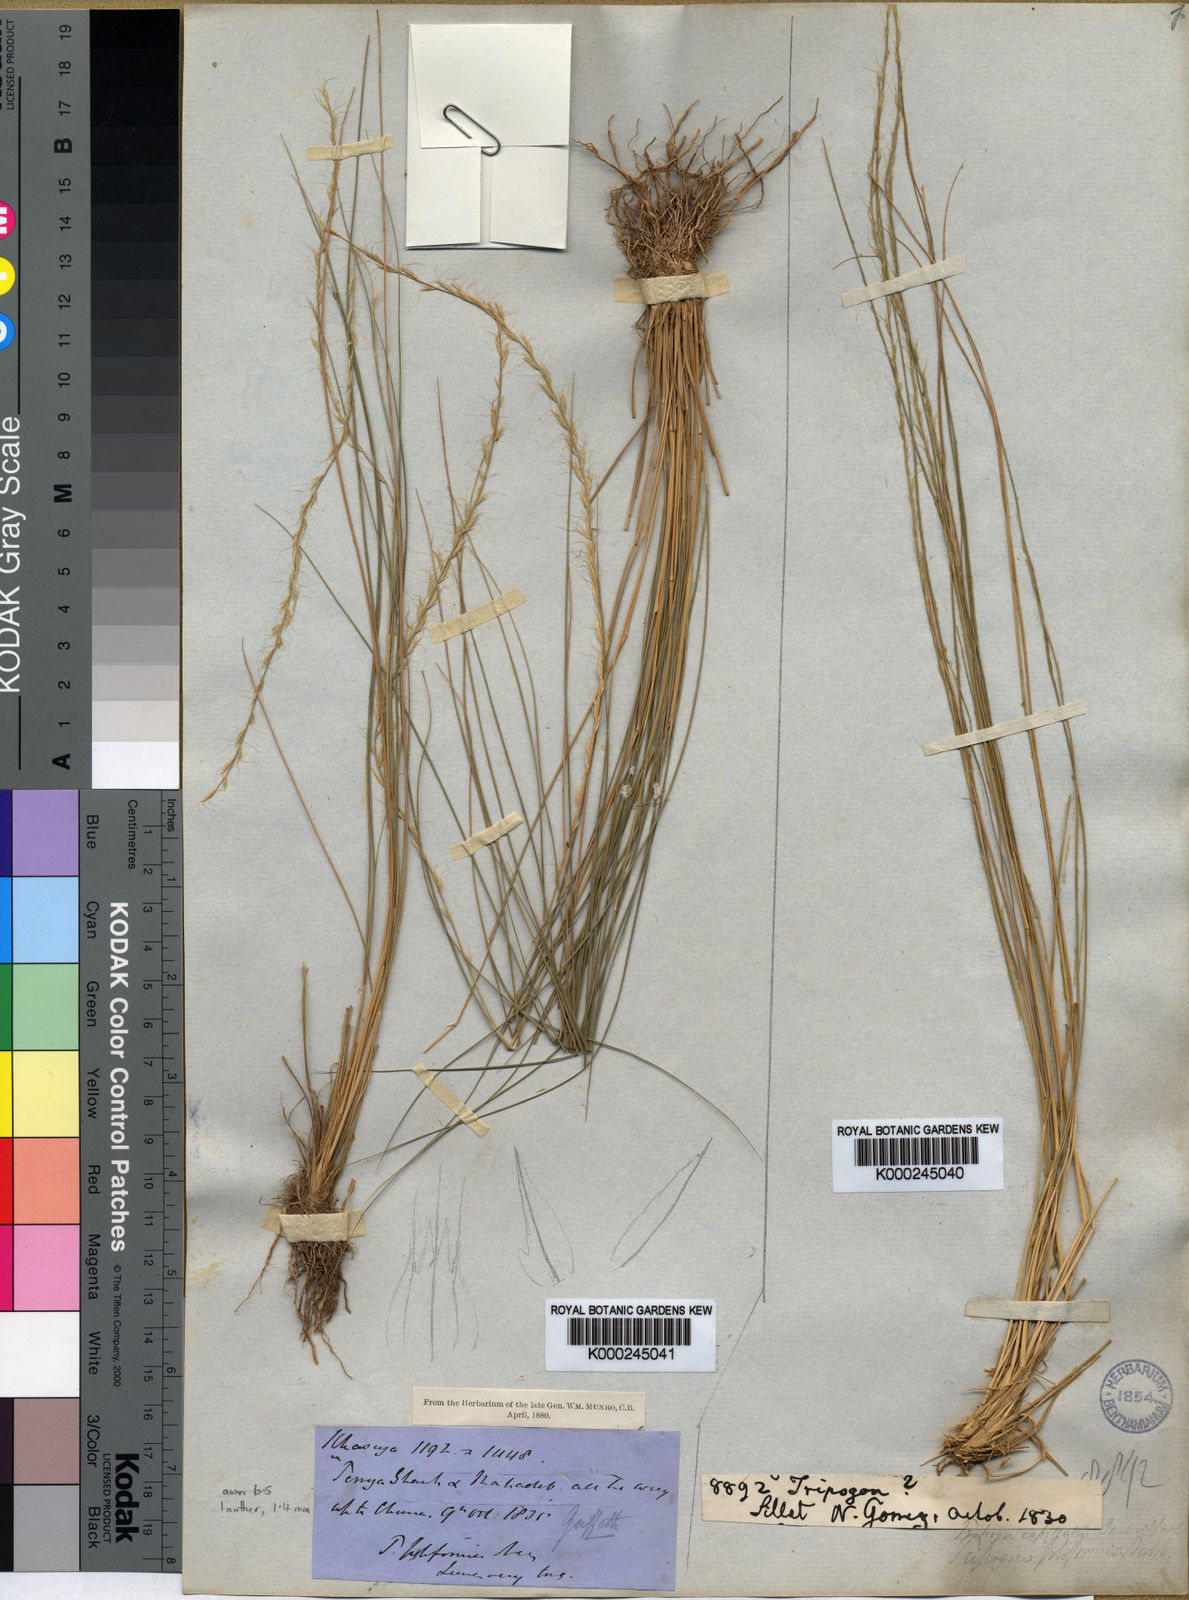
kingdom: Plantae
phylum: Tracheophyta
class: Liliopsida
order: Poales
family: Poaceae
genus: Tripogon
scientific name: Tripogon filiformis
